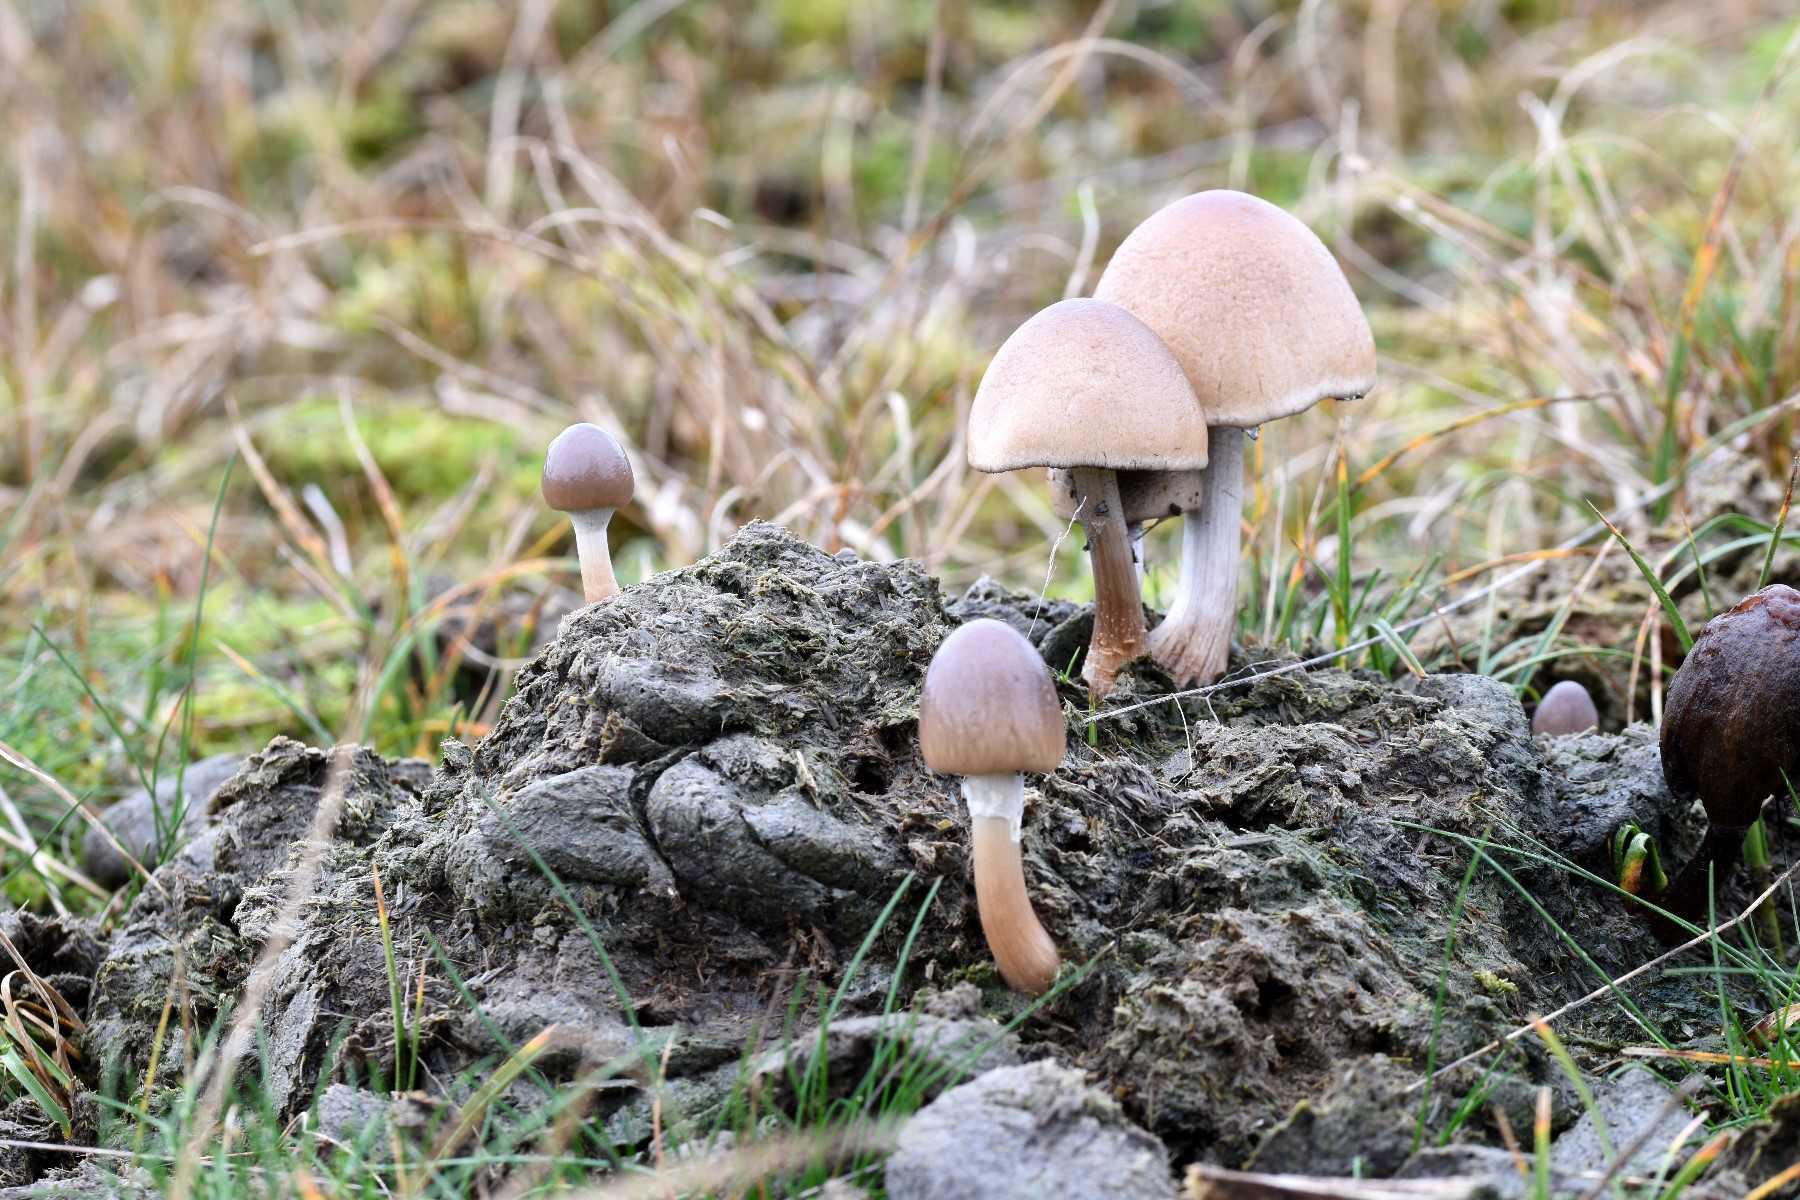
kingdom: Fungi
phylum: Basidiomycota
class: Agaricomycetes
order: Agaricales
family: Bolbitiaceae
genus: Panaeolus
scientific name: Panaeolus semiovatus
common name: ring-glanshat
